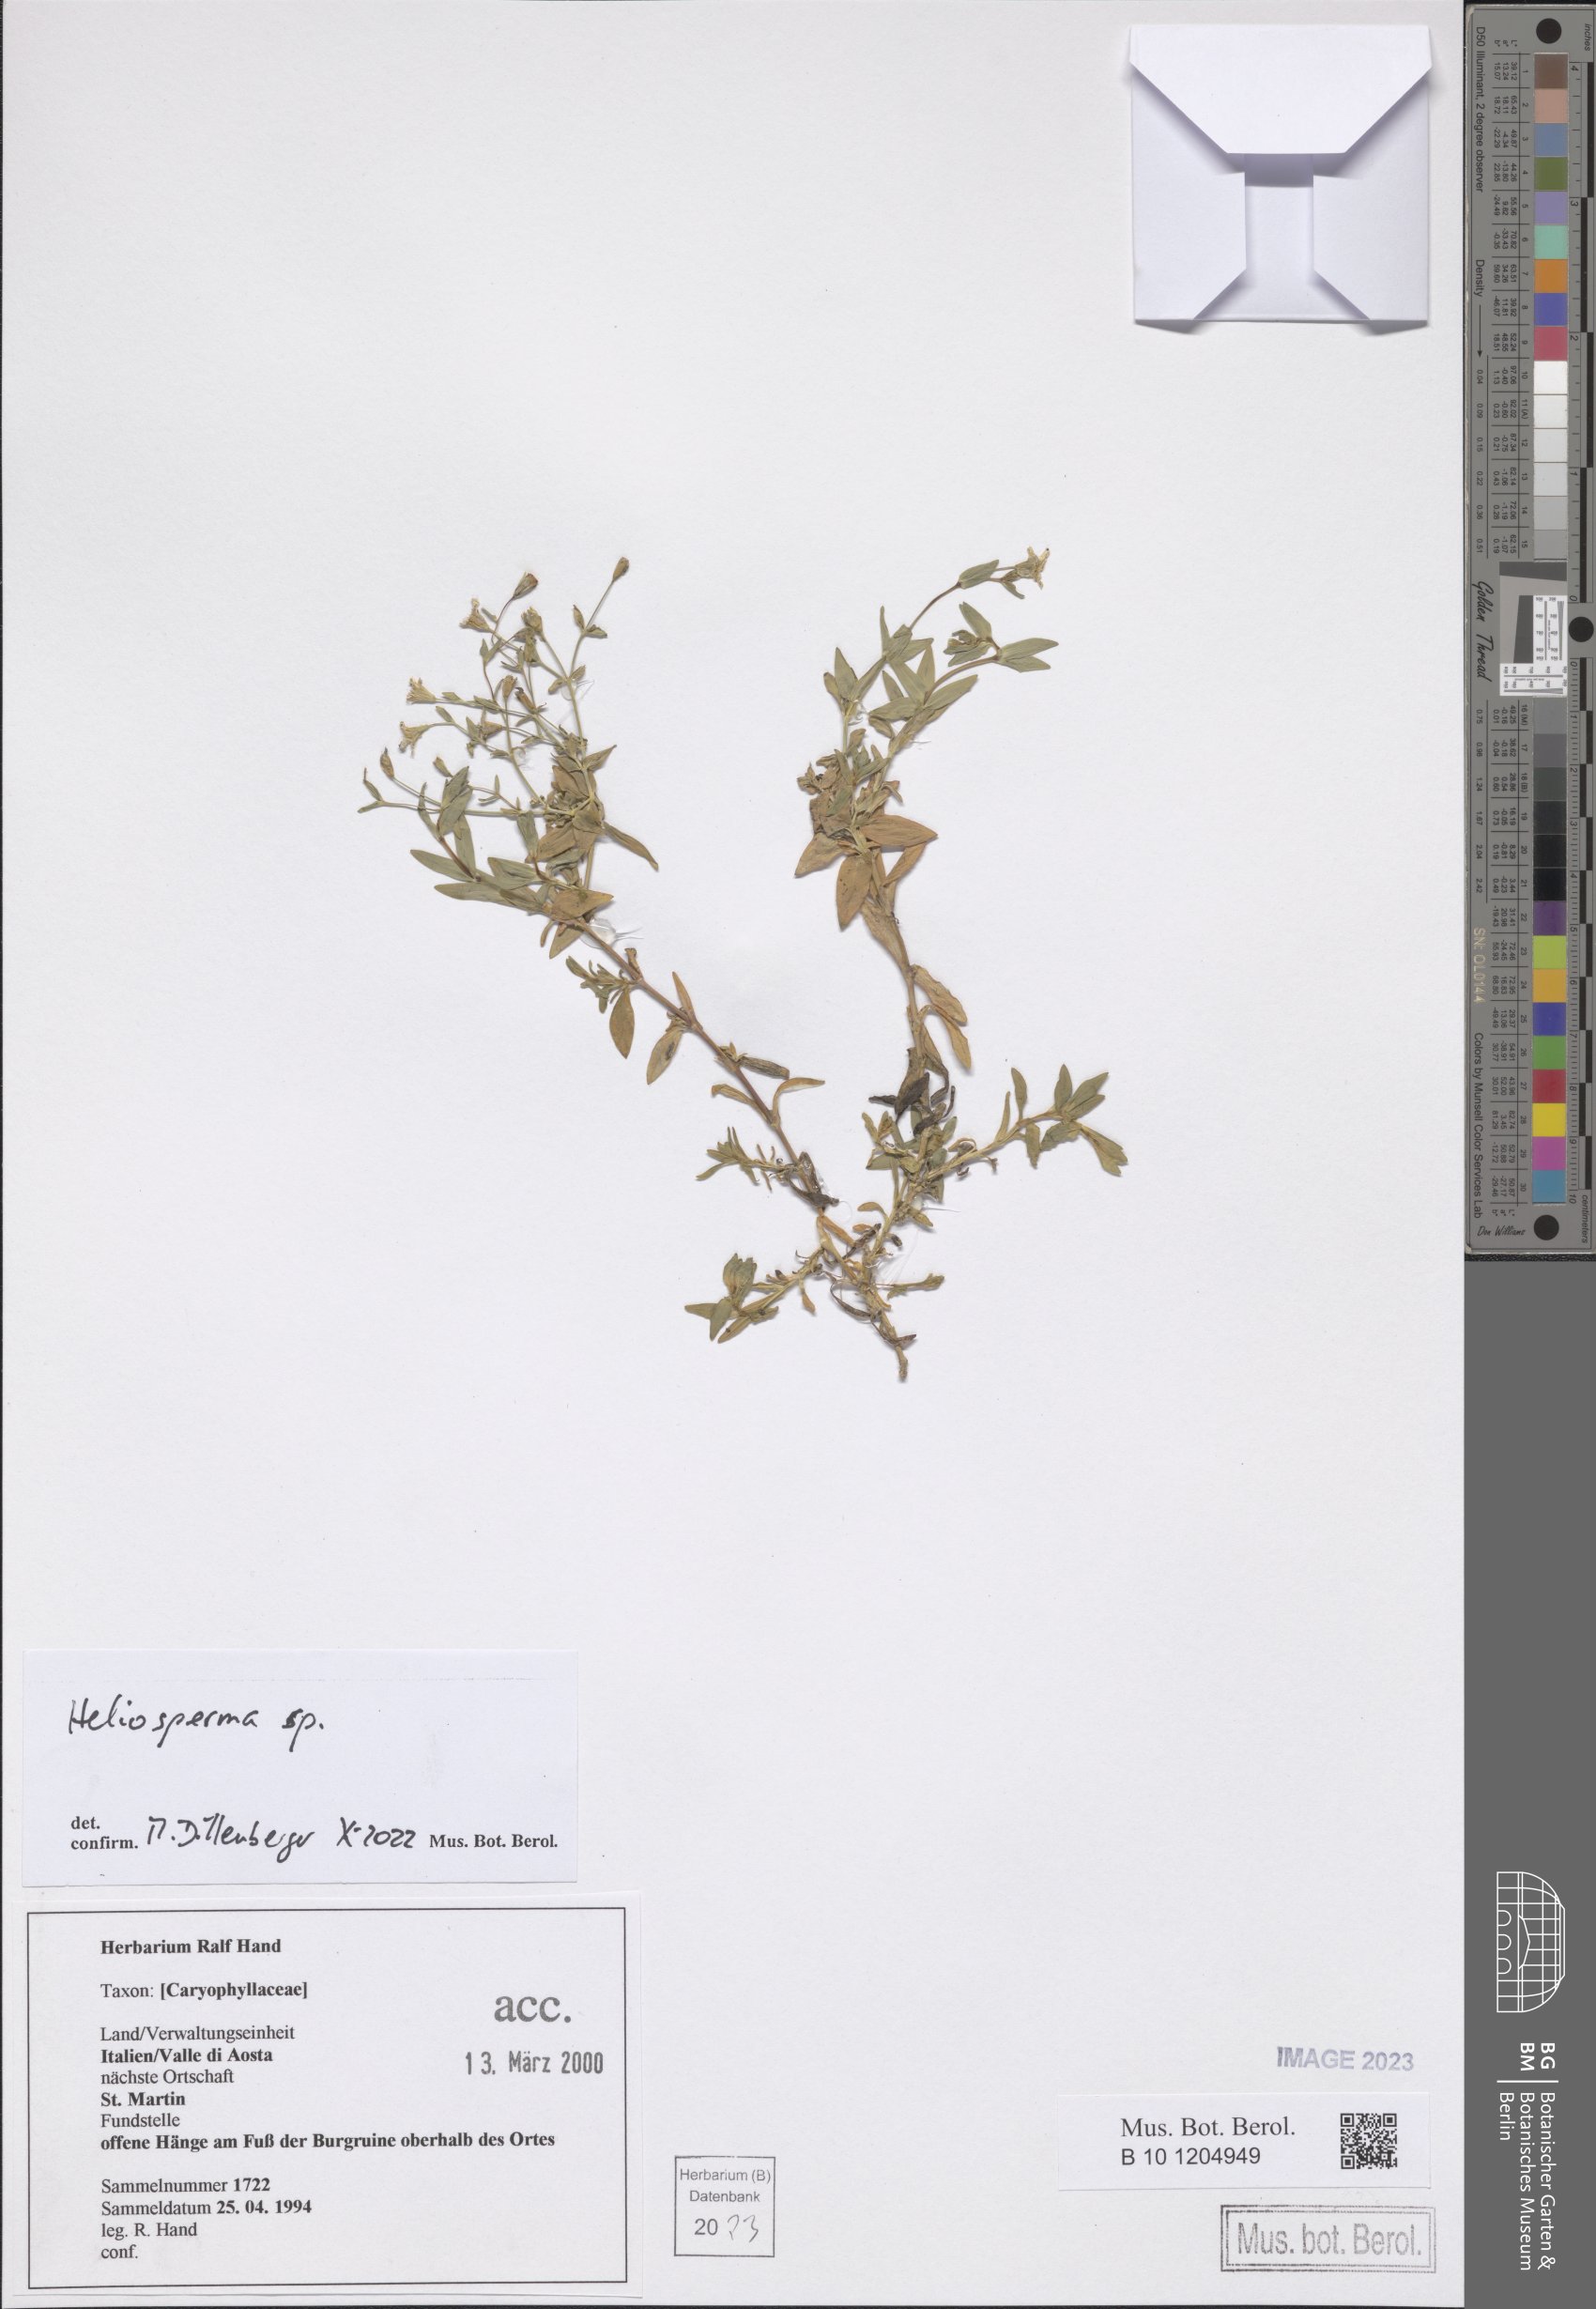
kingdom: Plantae
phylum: Tracheophyta
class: Magnoliopsida
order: Caryophyllales
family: Caryophyllaceae
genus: Heliosperma
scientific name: Heliosperma
